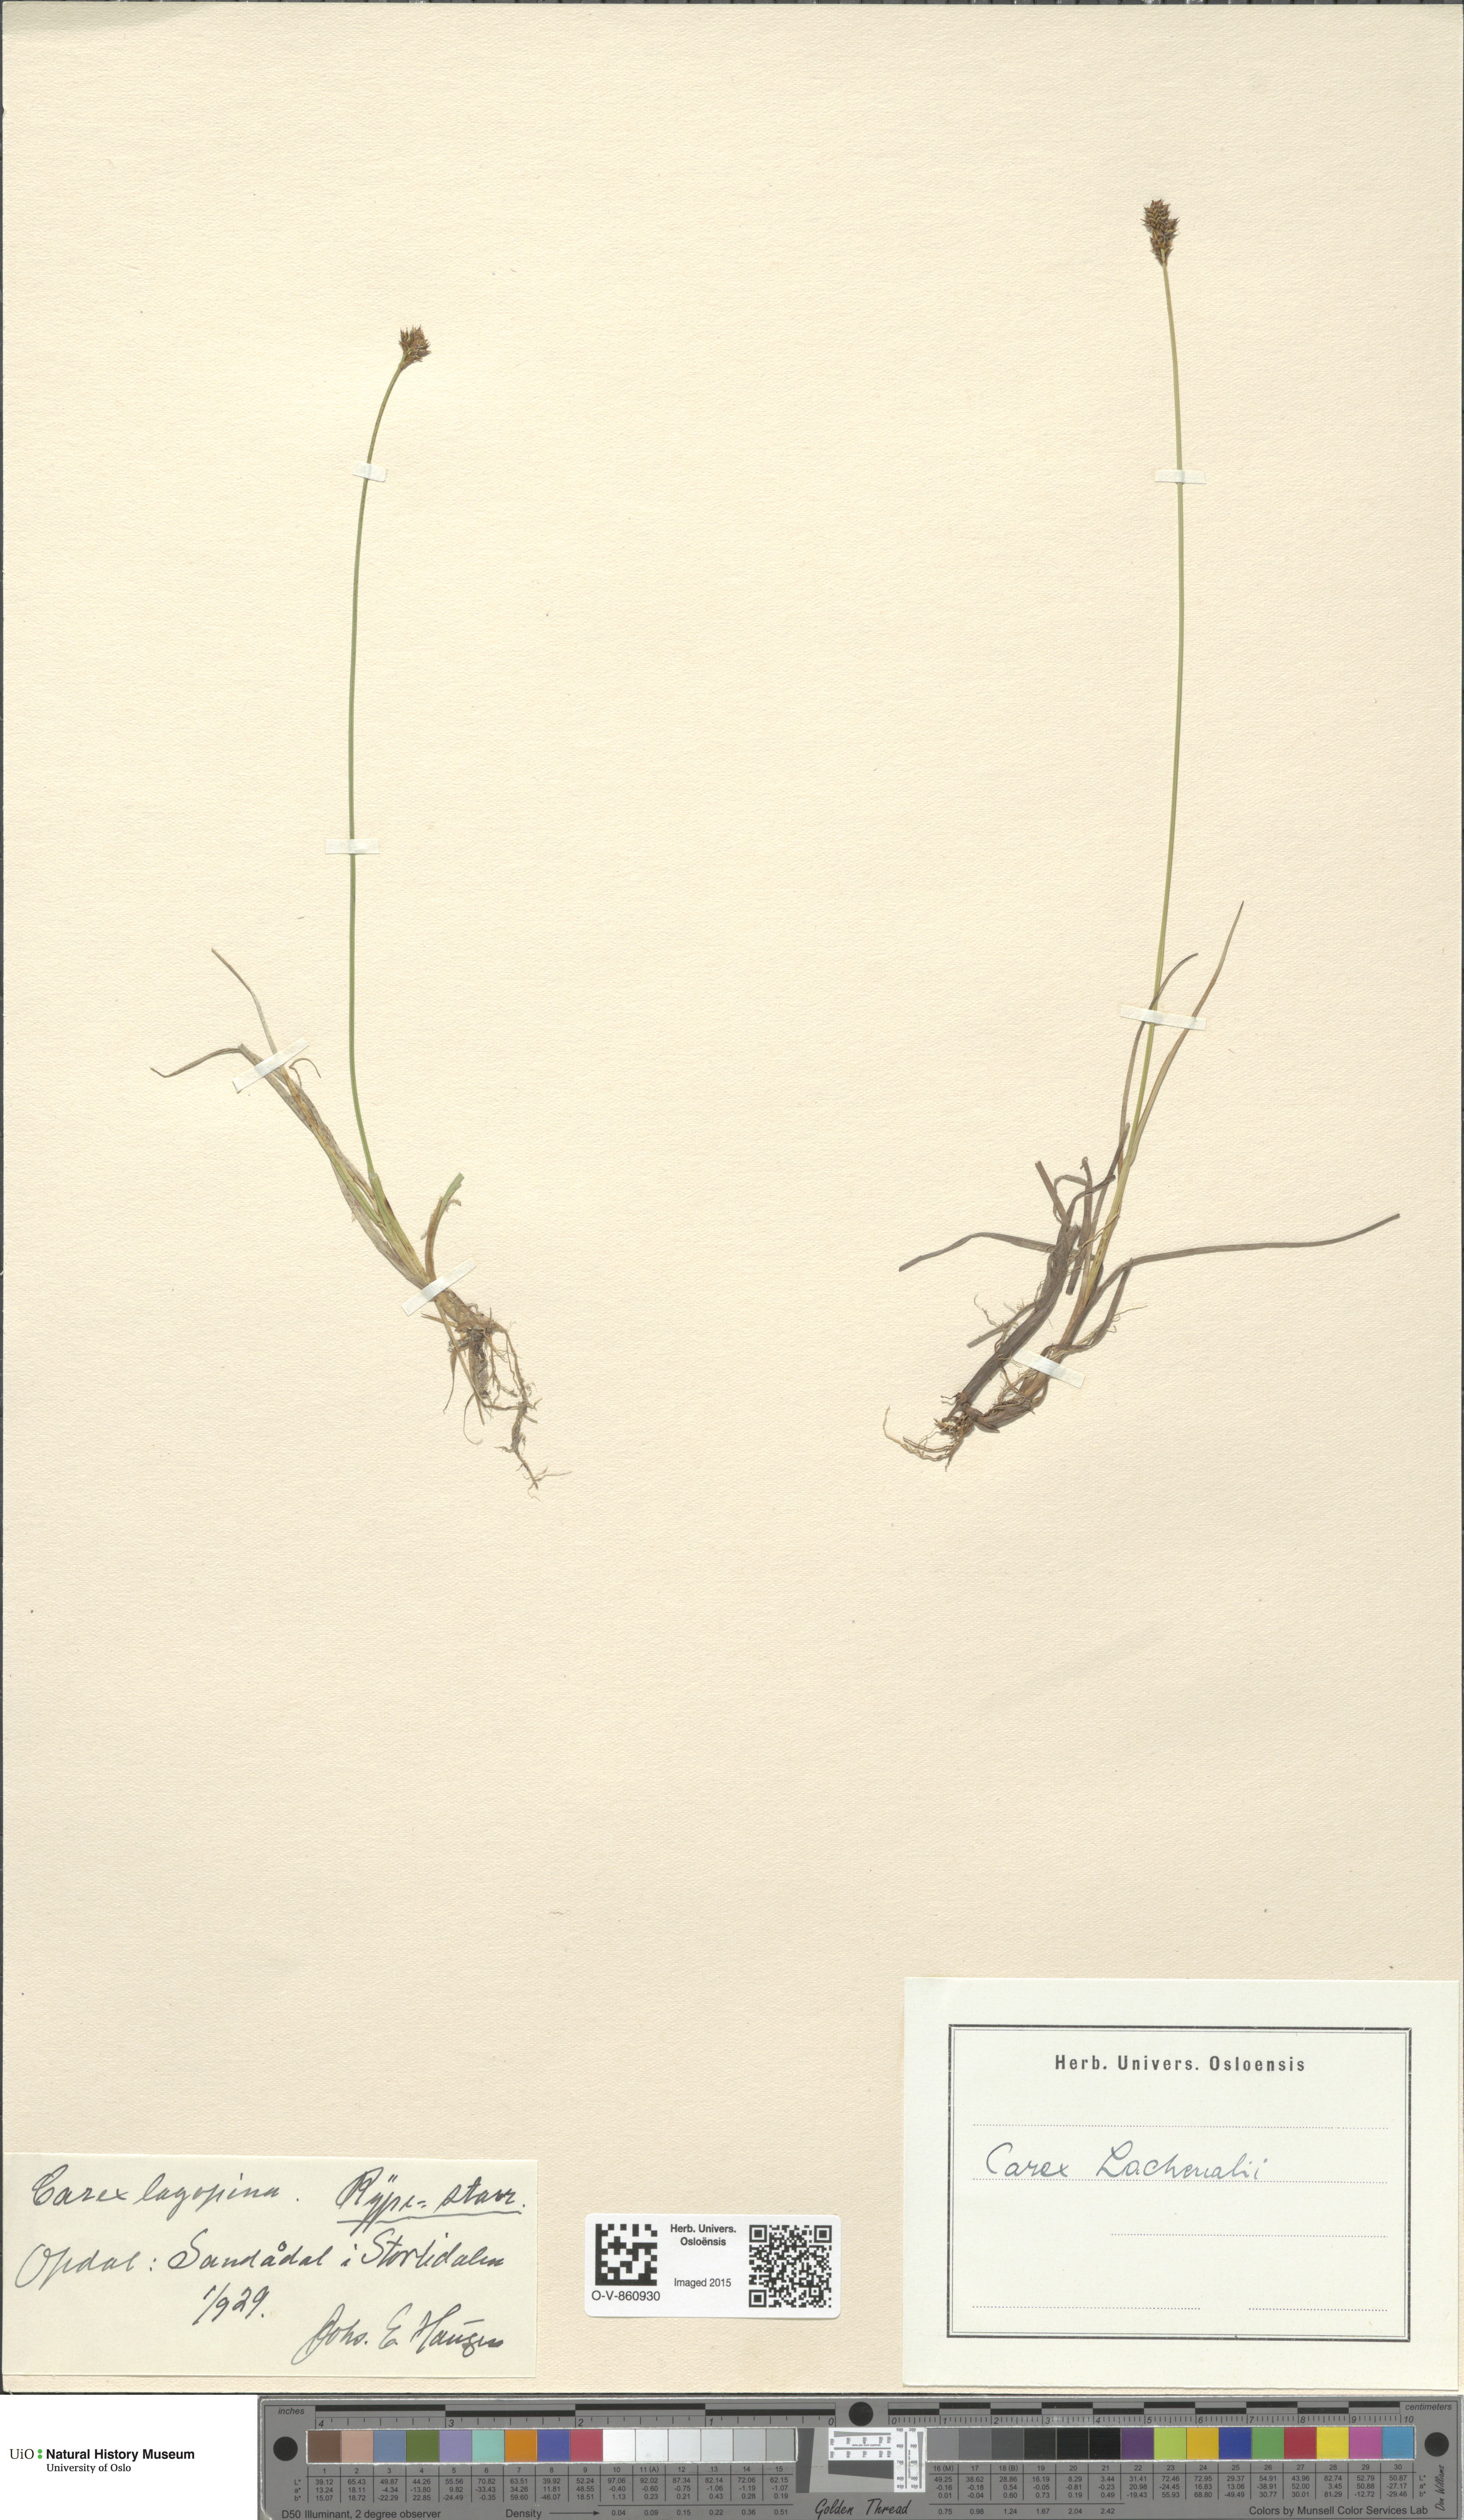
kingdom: Plantae
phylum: Tracheophyta
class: Liliopsida
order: Poales
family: Cyperaceae
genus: Carex
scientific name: Carex lachenalii
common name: Hare's-foot sedge
